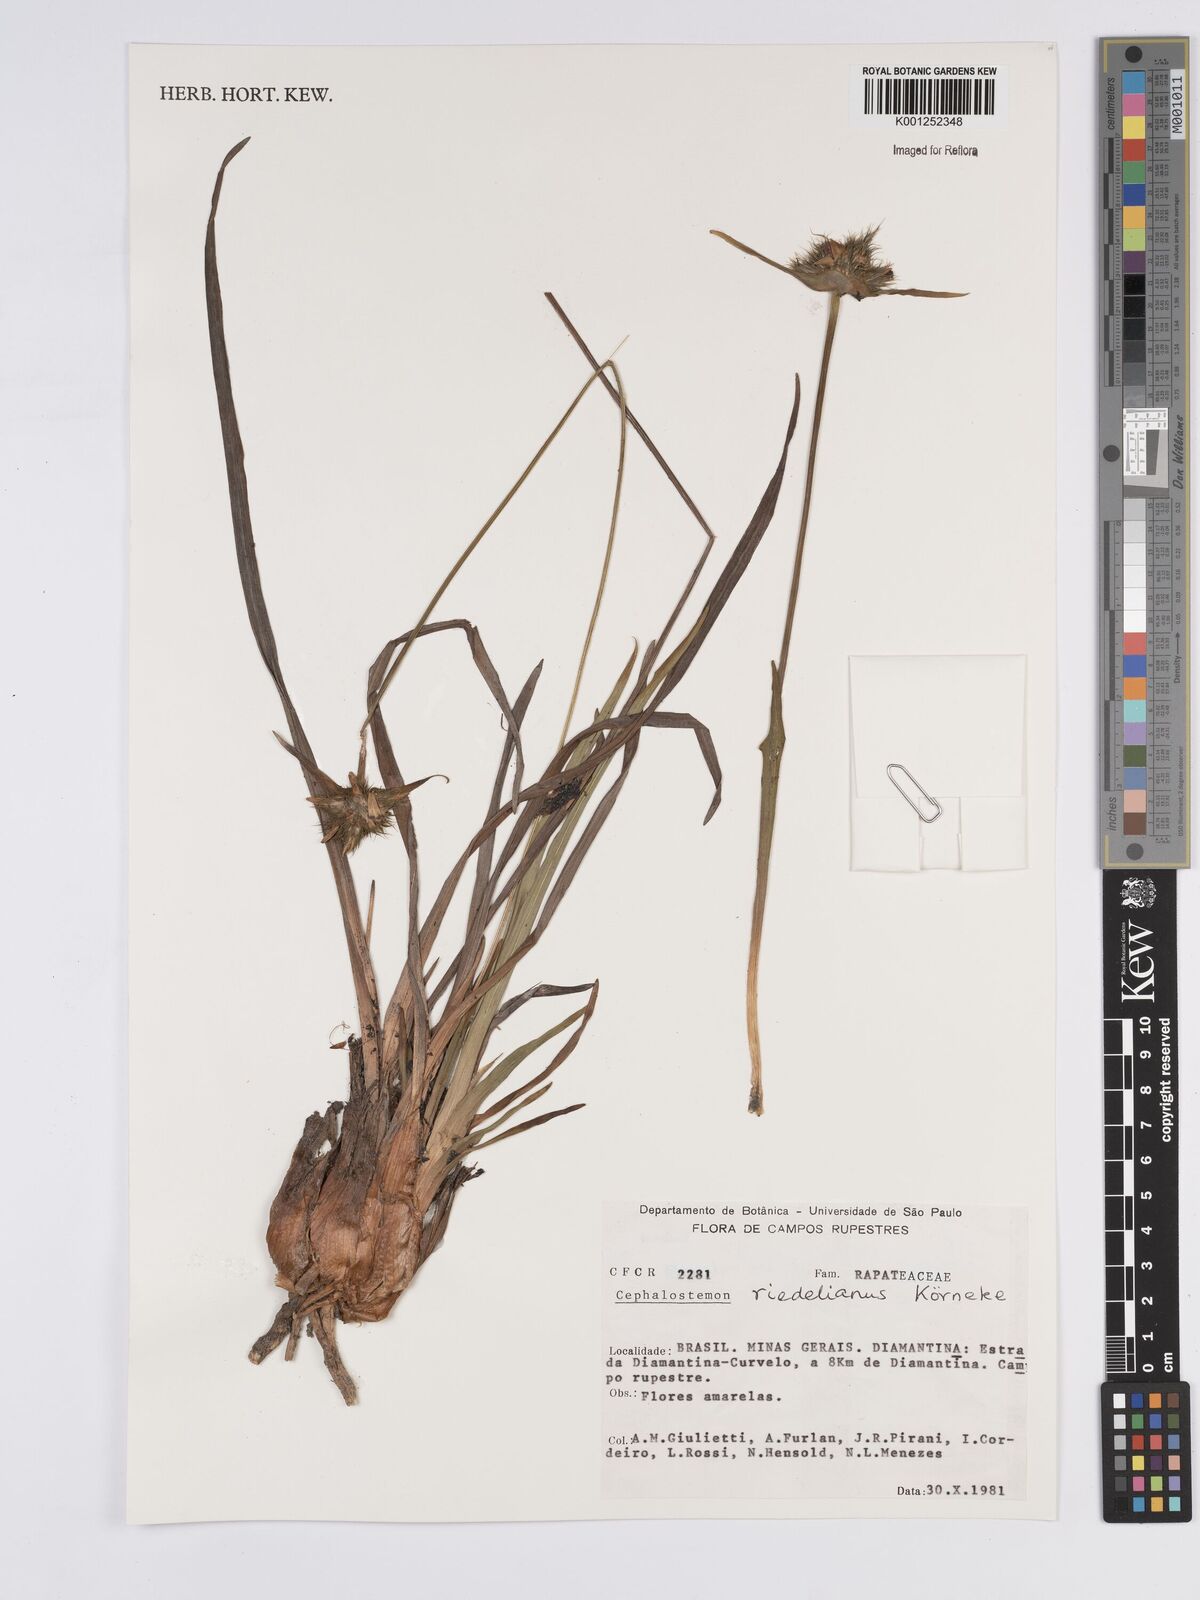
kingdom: Plantae
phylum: Tracheophyta
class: Liliopsida
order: Poales
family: Rapateaceae
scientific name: Rapateaceae
